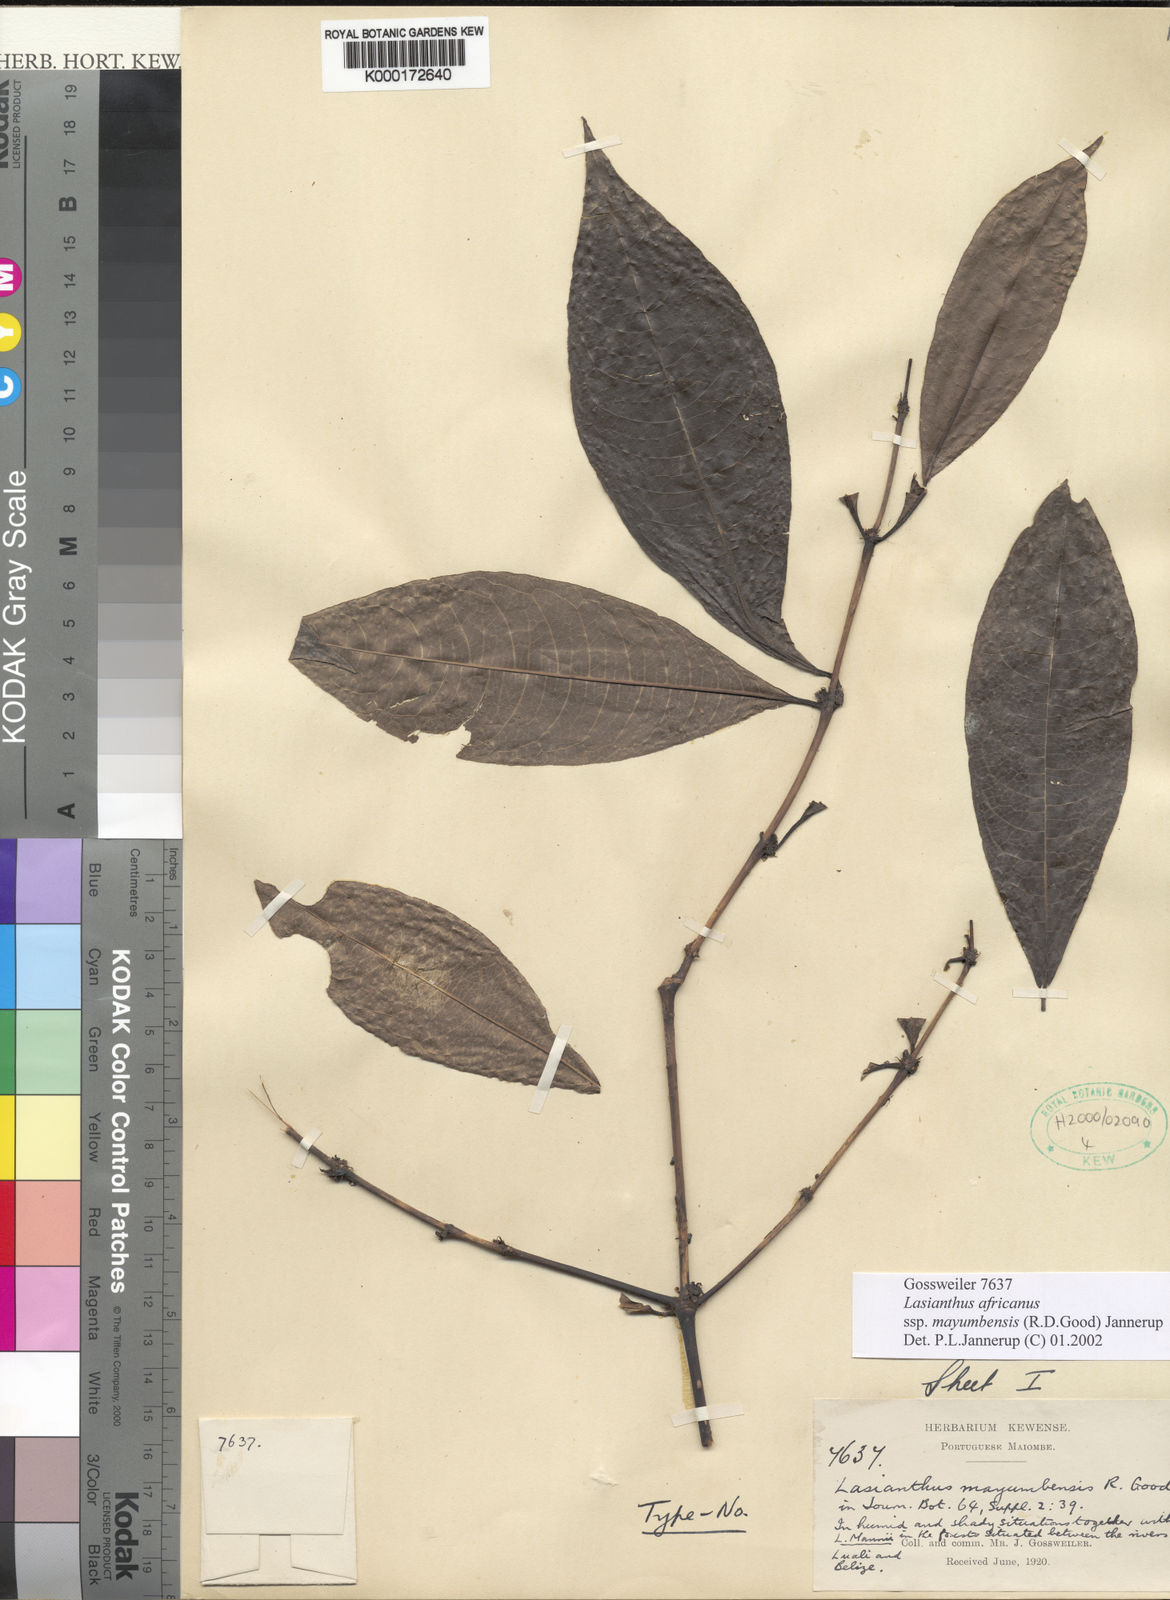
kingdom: Plantae
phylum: Tracheophyta
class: Magnoliopsida
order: Gentianales
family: Rubiaceae
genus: Lasianthus
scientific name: Lasianthus batangensis
